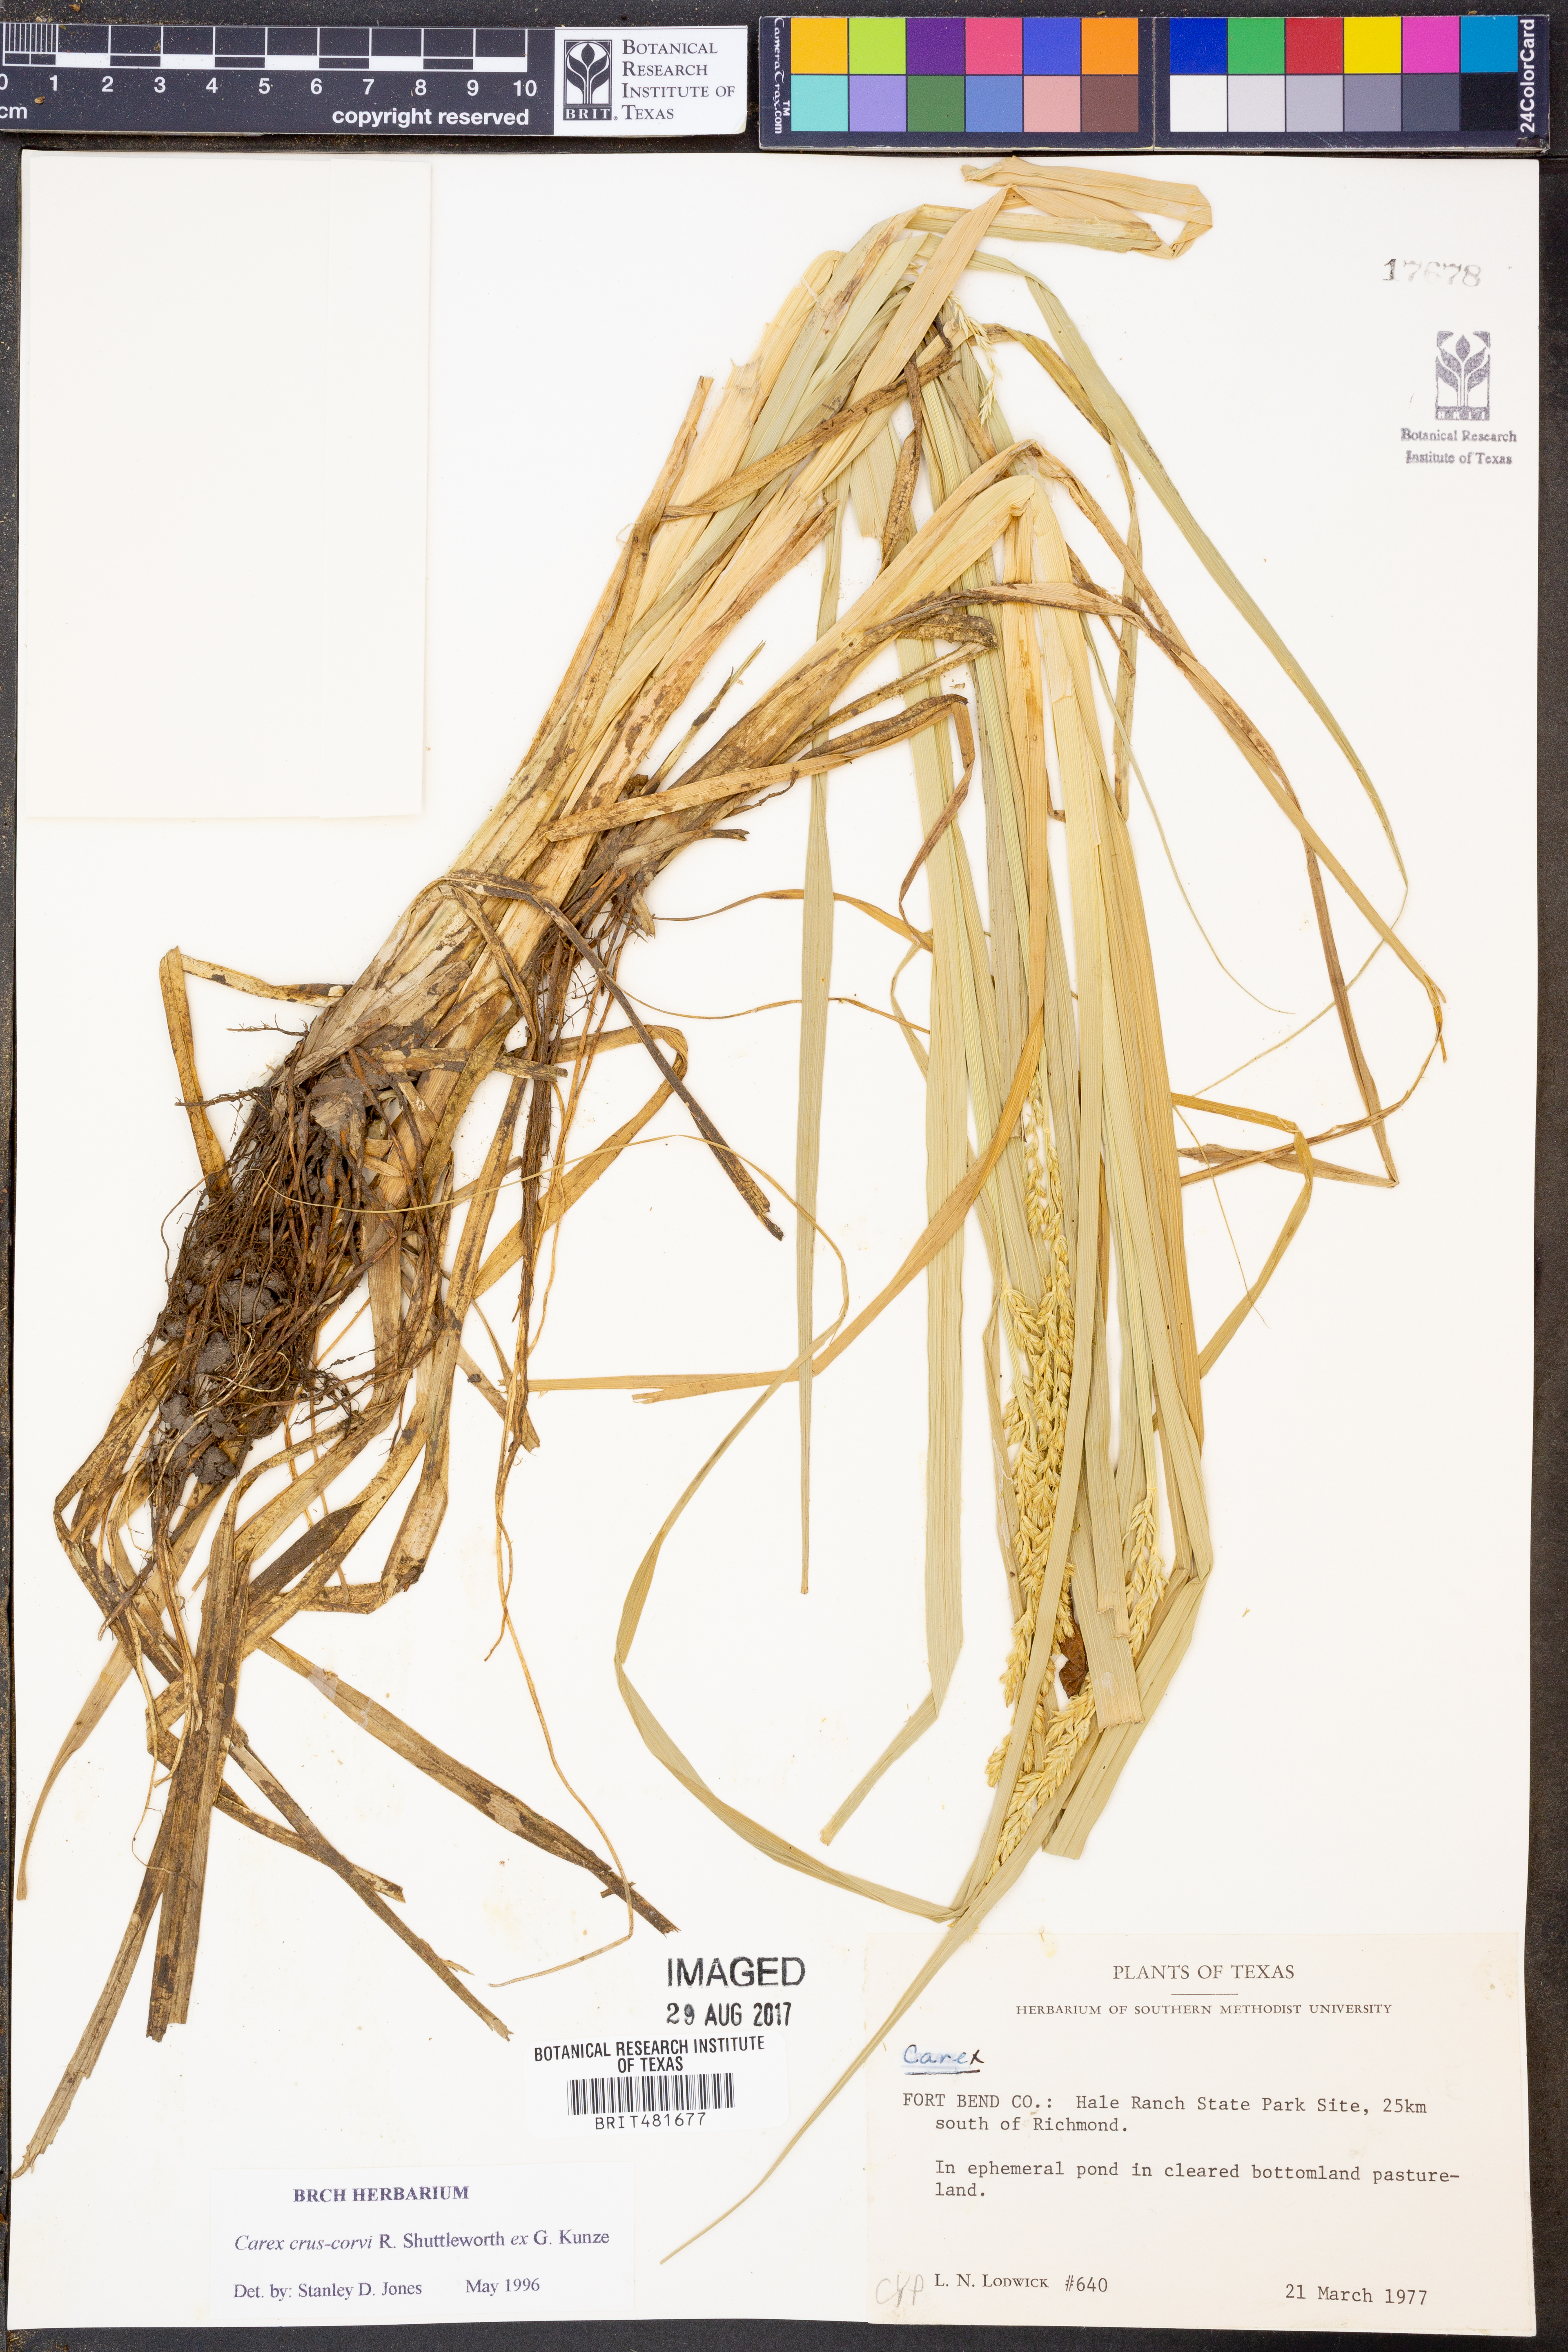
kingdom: Plantae
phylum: Tracheophyta
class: Liliopsida
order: Poales
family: Cyperaceae
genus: Carex
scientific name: Carex crus-corvi
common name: Crow-spur sedge
